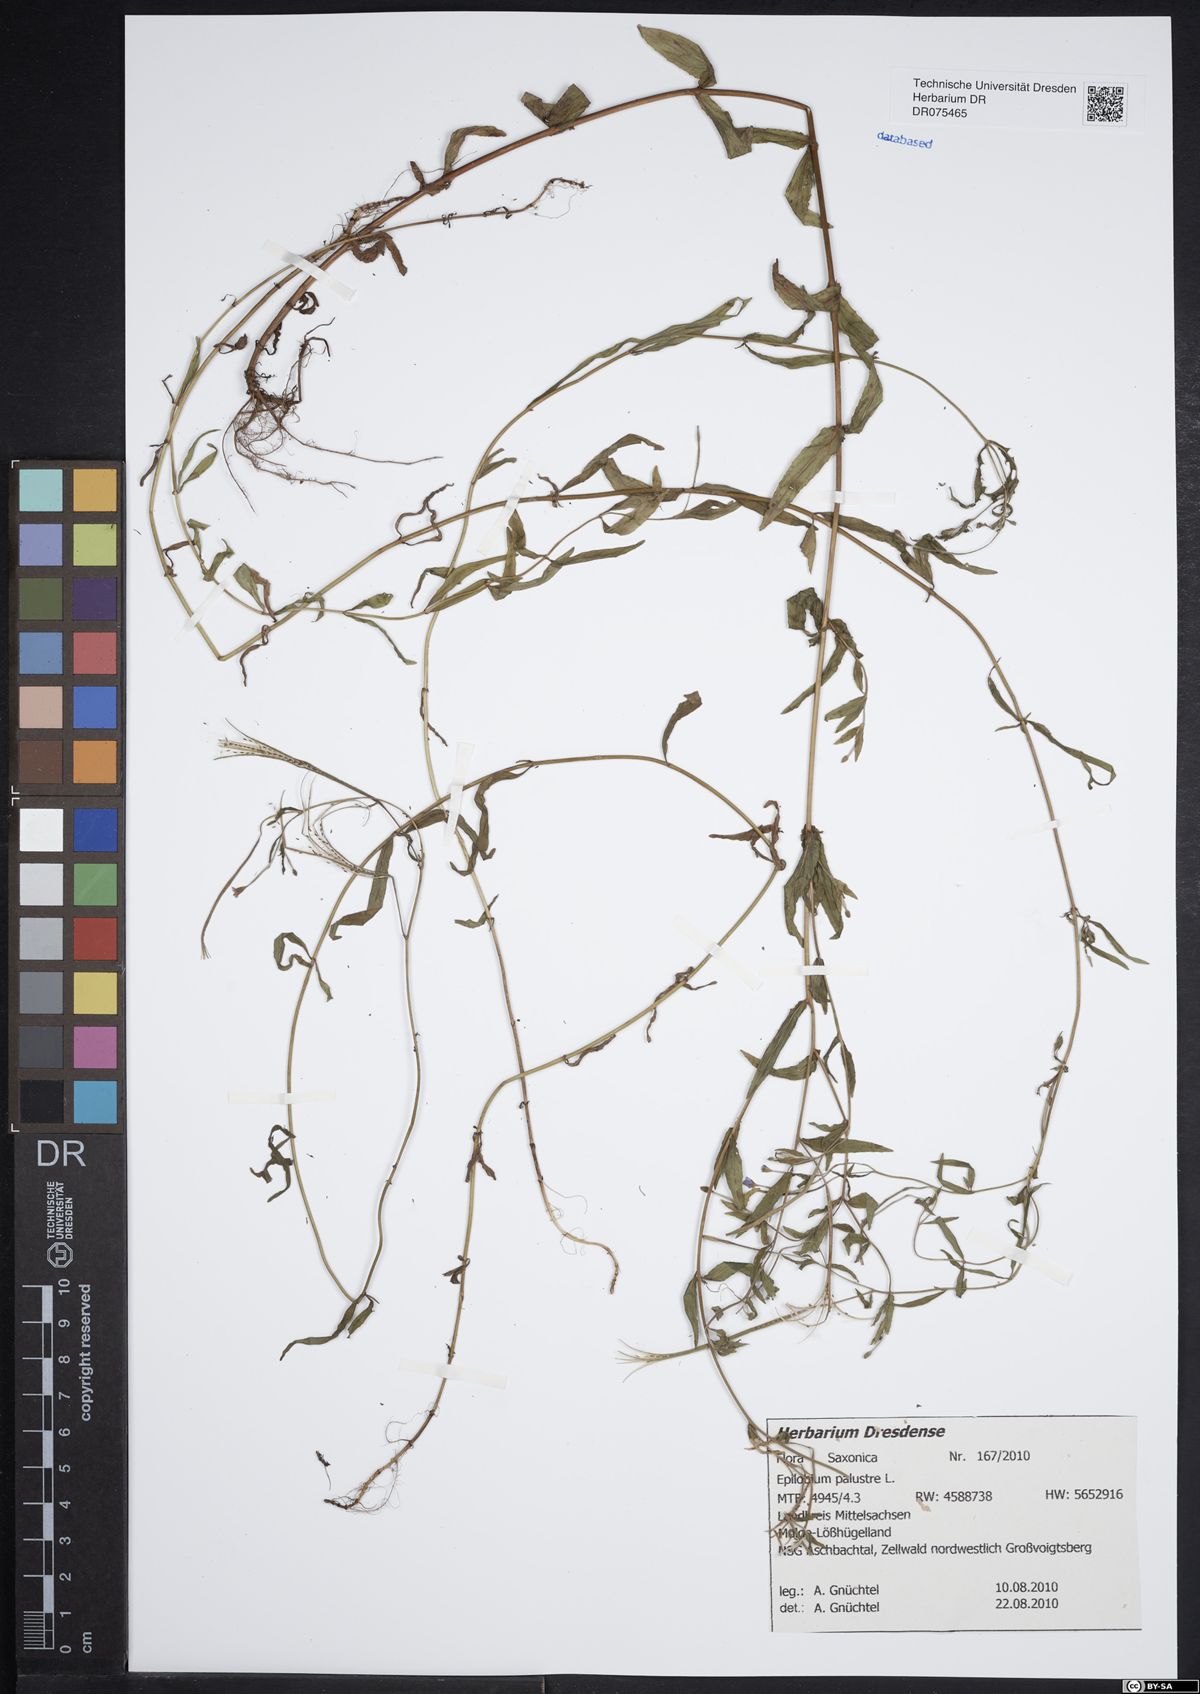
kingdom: Plantae
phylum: Tracheophyta
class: Magnoliopsida
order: Myrtales
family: Onagraceae
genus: Epilobium
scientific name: Epilobium palustre
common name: Marsh willowherb
